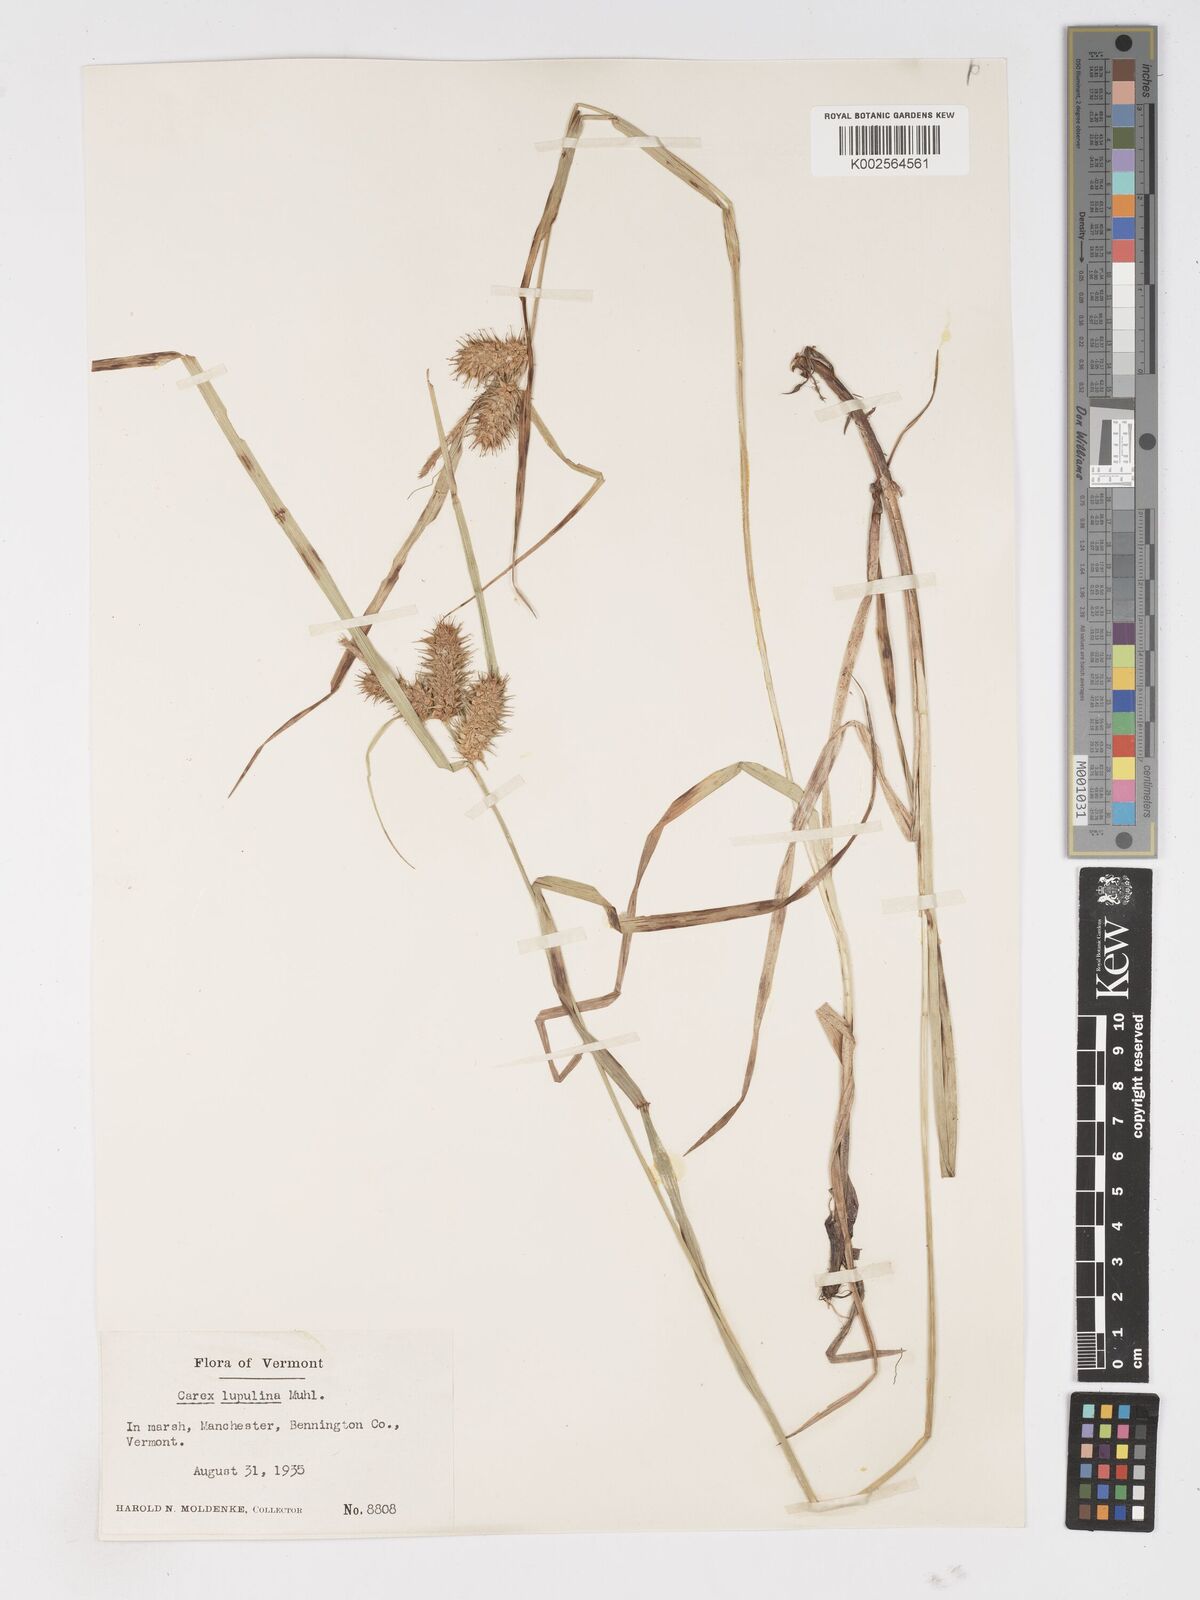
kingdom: Plantae
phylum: Tracheophyta
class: Liliopsida
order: Poales
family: Cyperaceae
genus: Carex
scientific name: Carex lupulina
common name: Hop sedge
